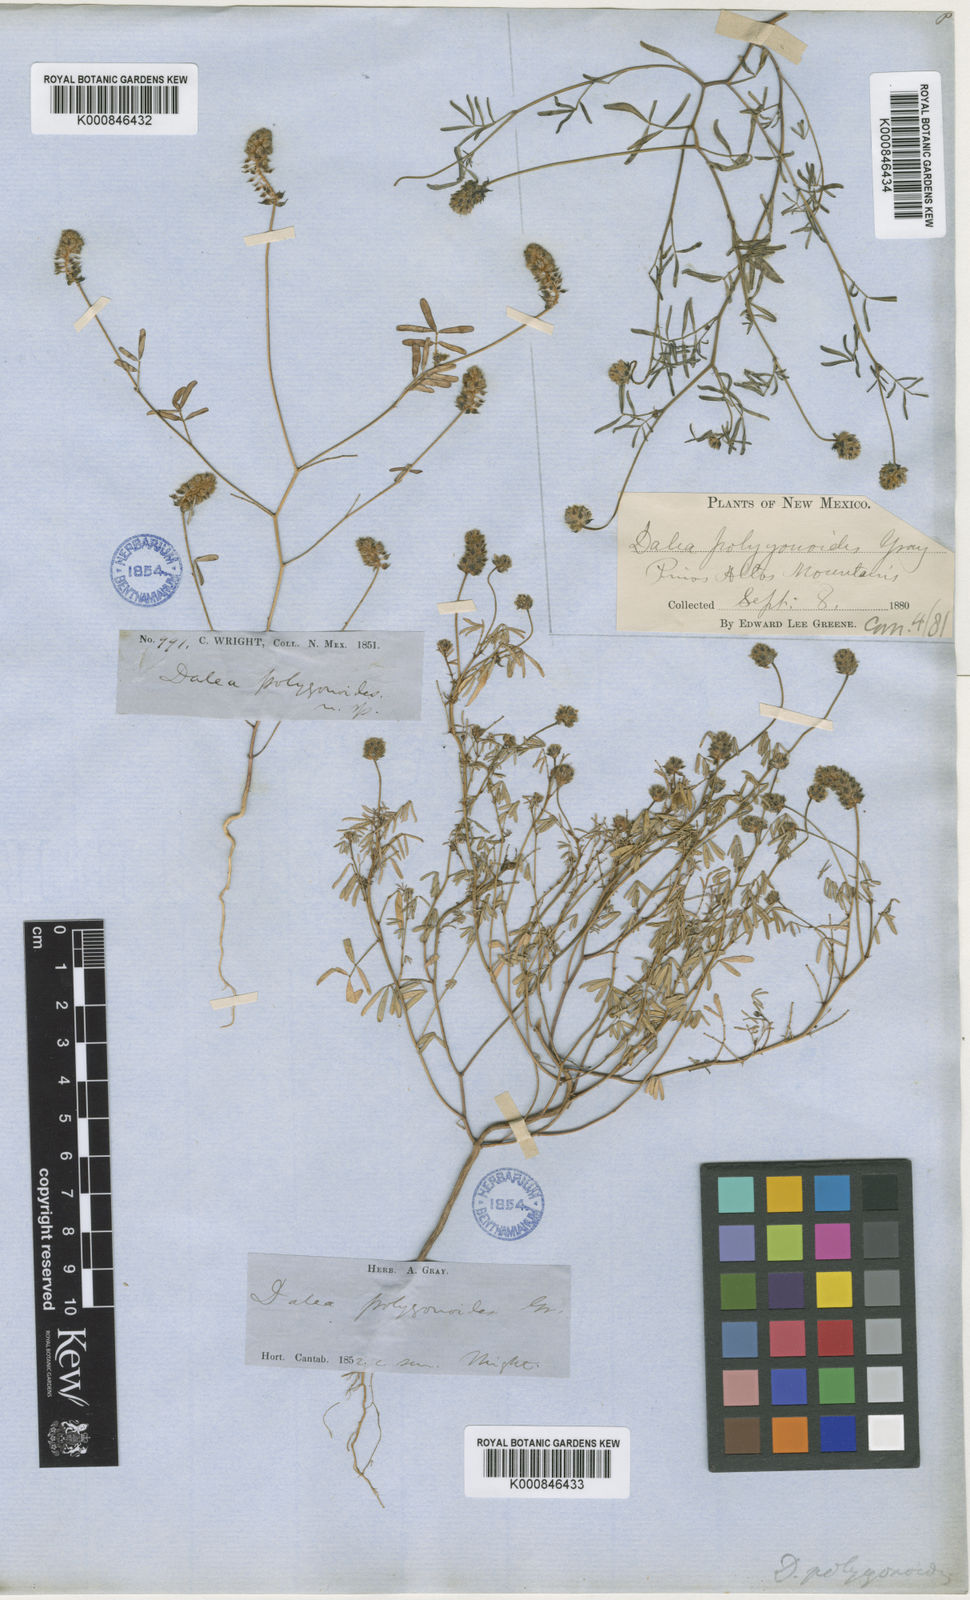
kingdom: Plantae
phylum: Tracheophyta
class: Magnoliopsida
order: Fabales
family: Fabaceae
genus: Dalea
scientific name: Dalea polygonoides
